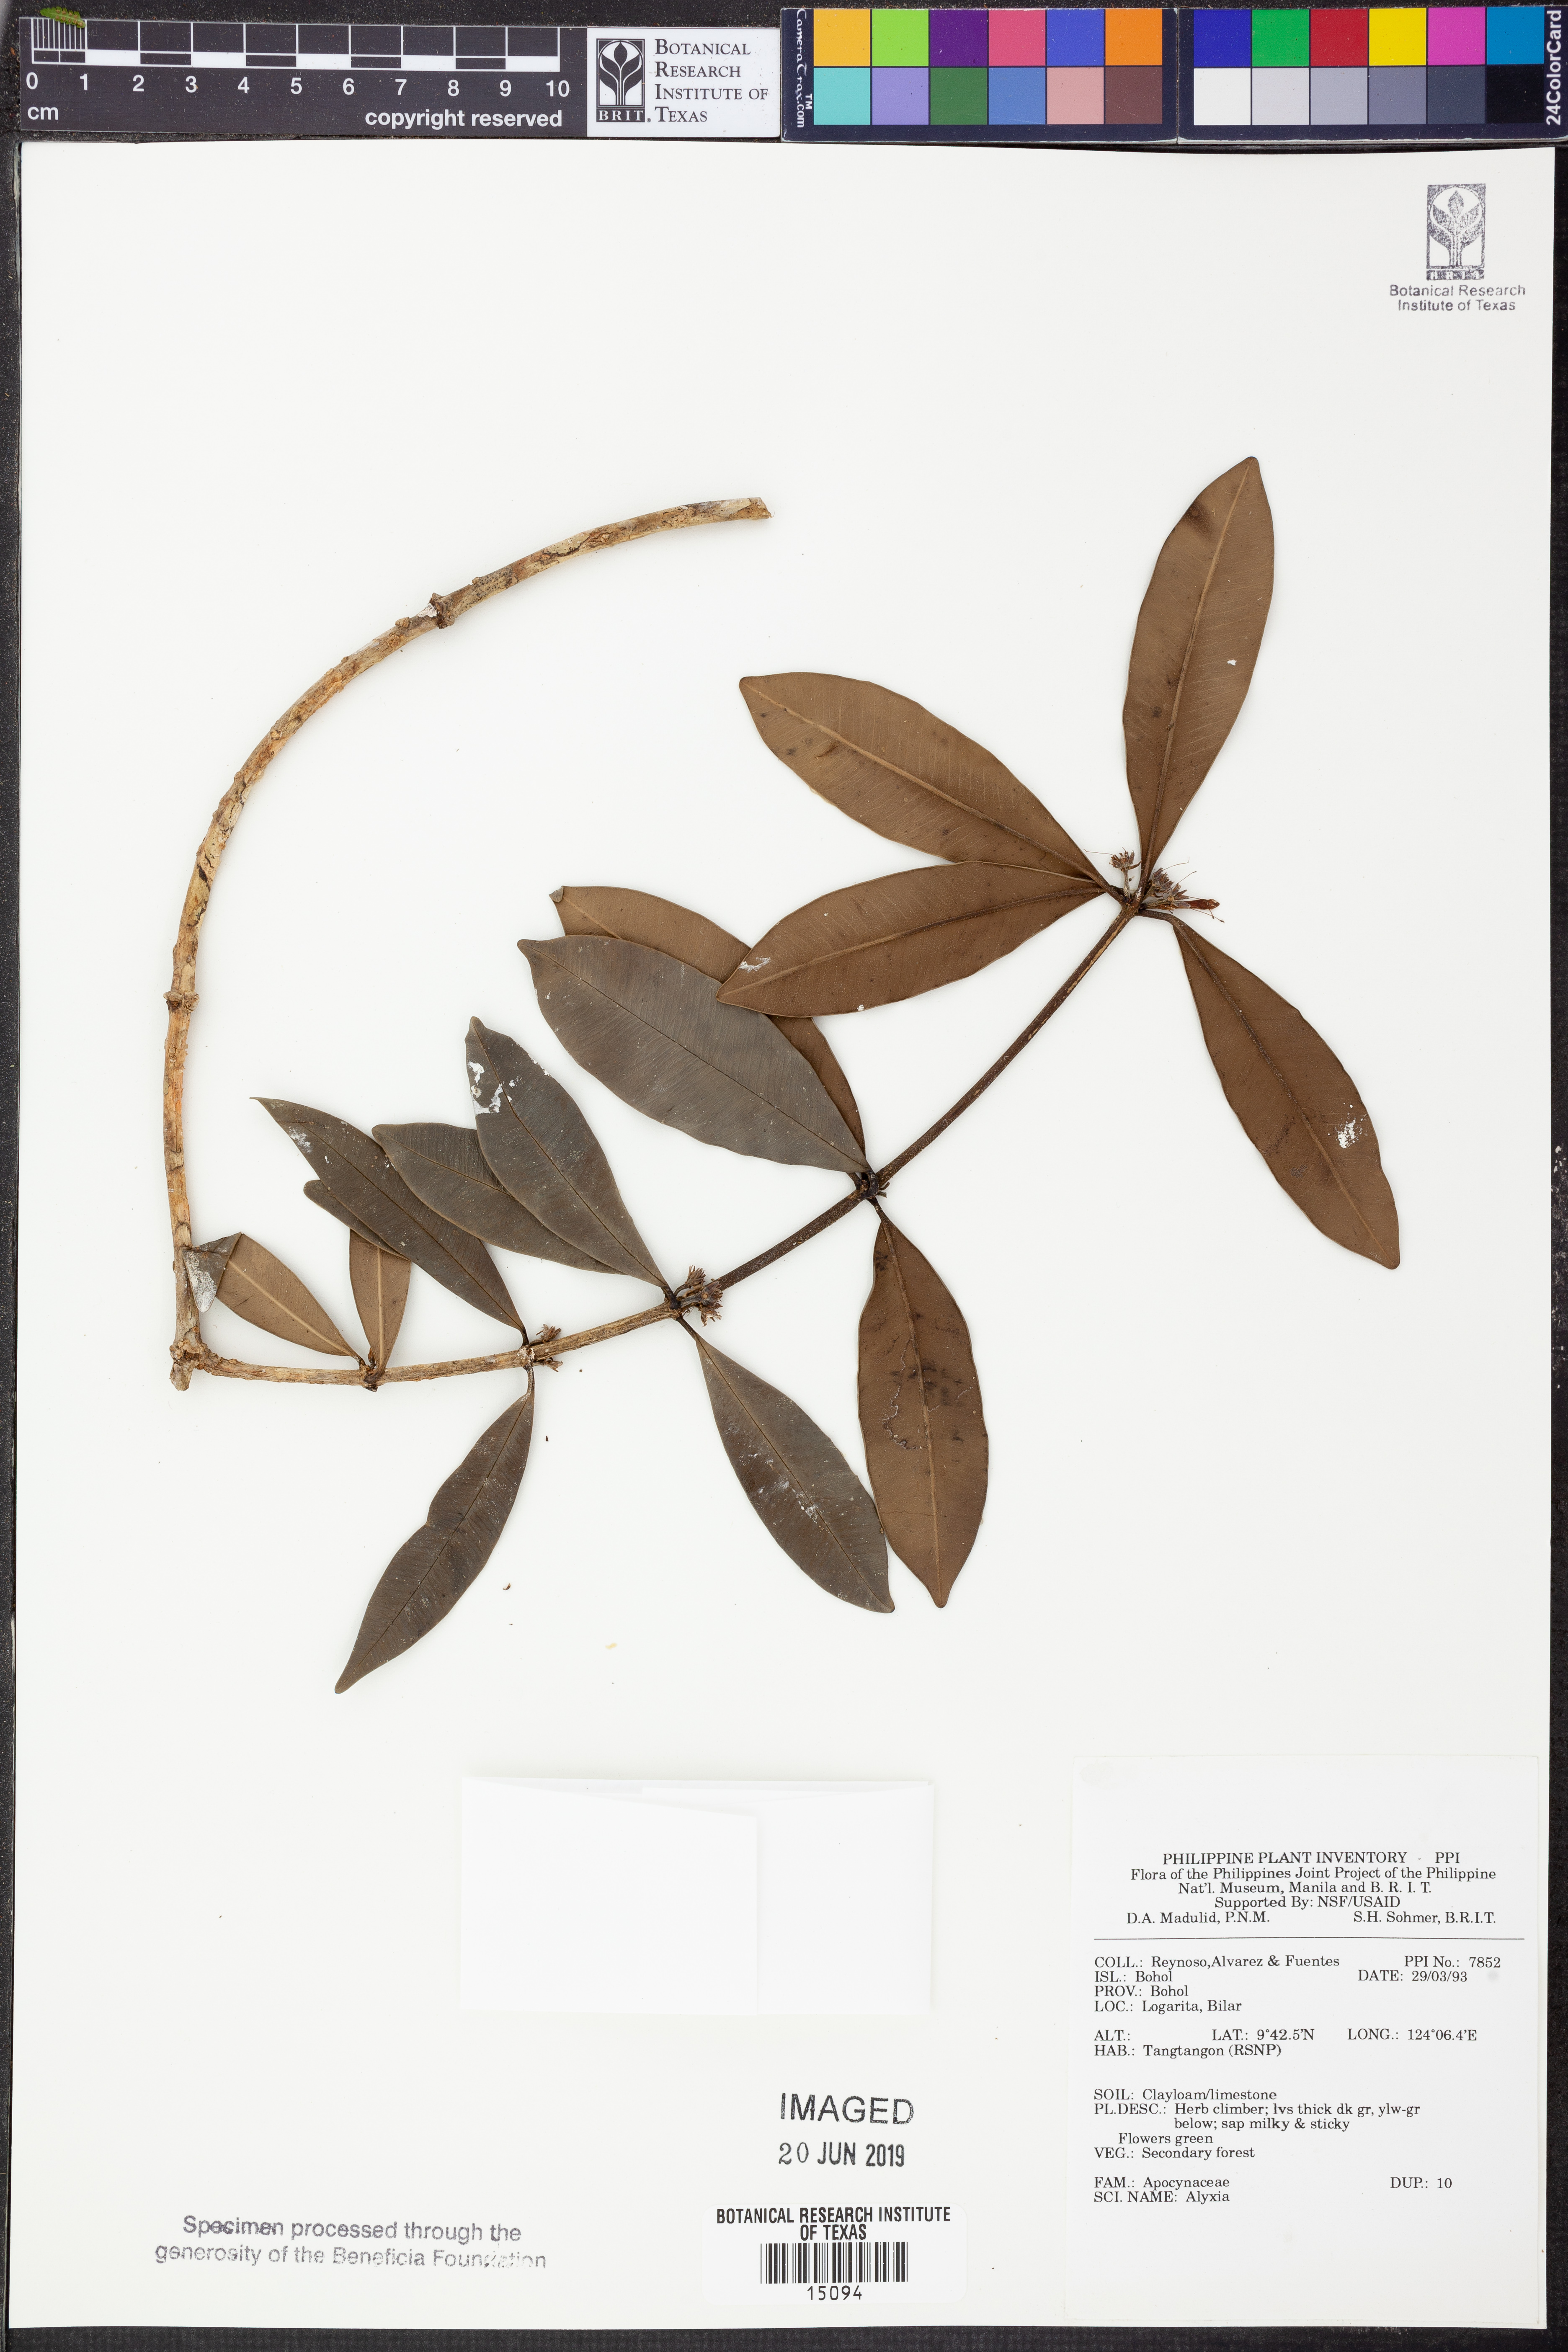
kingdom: Plantae
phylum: Tracheophyta
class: Magnoliopsida
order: Gentianales
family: Apocynaceae
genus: Alyxia
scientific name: Alyxia
